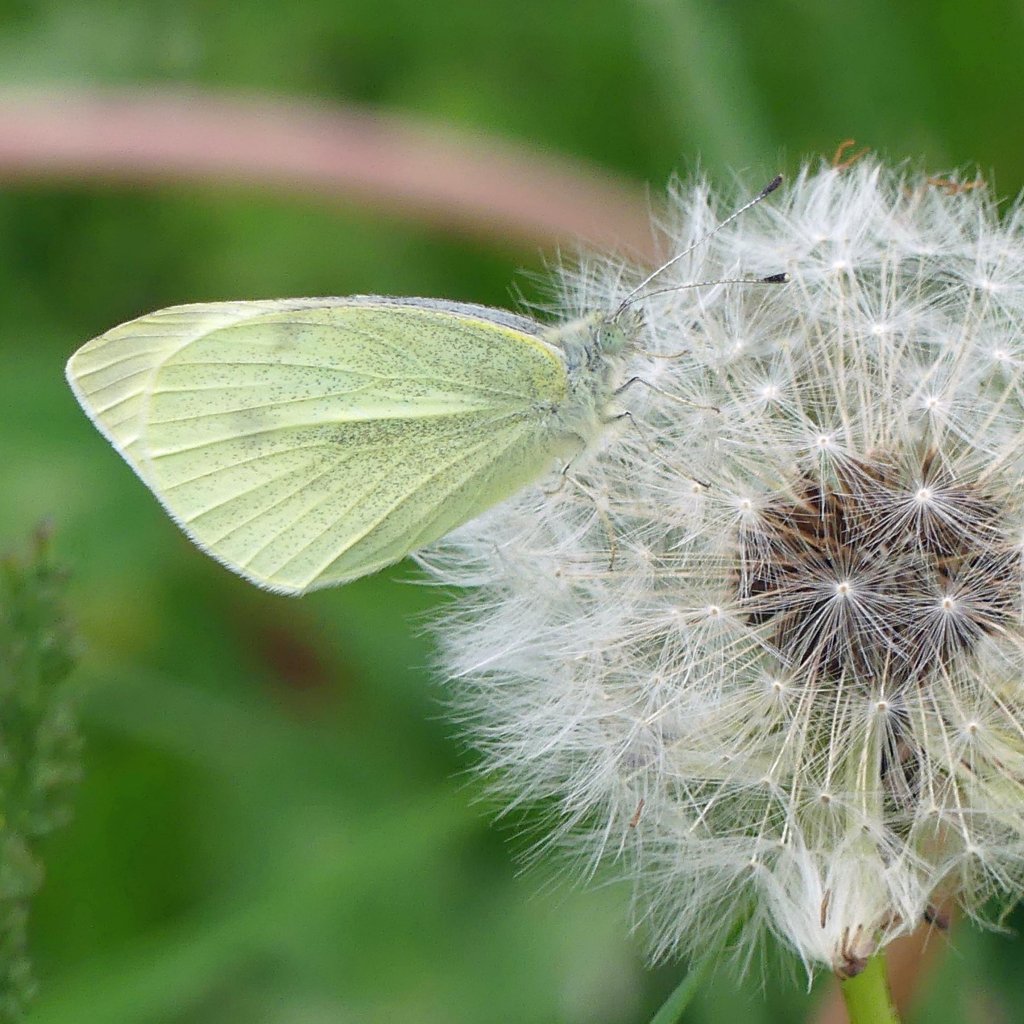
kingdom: Animalia
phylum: Arthropoda
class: Insecta
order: Lepidoptera
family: Pieridae
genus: Pieris
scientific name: Pieris rapae
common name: Cabbage White
